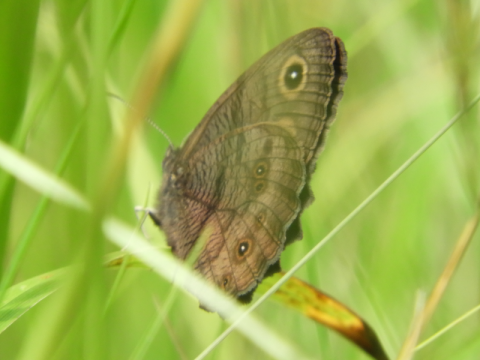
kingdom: Animalia
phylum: Arthropoda
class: Insecta
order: Lepidoptera
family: Nymphalidae
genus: Cercyonis
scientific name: Cercyonis pegala
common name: Common Wood-Nymph
